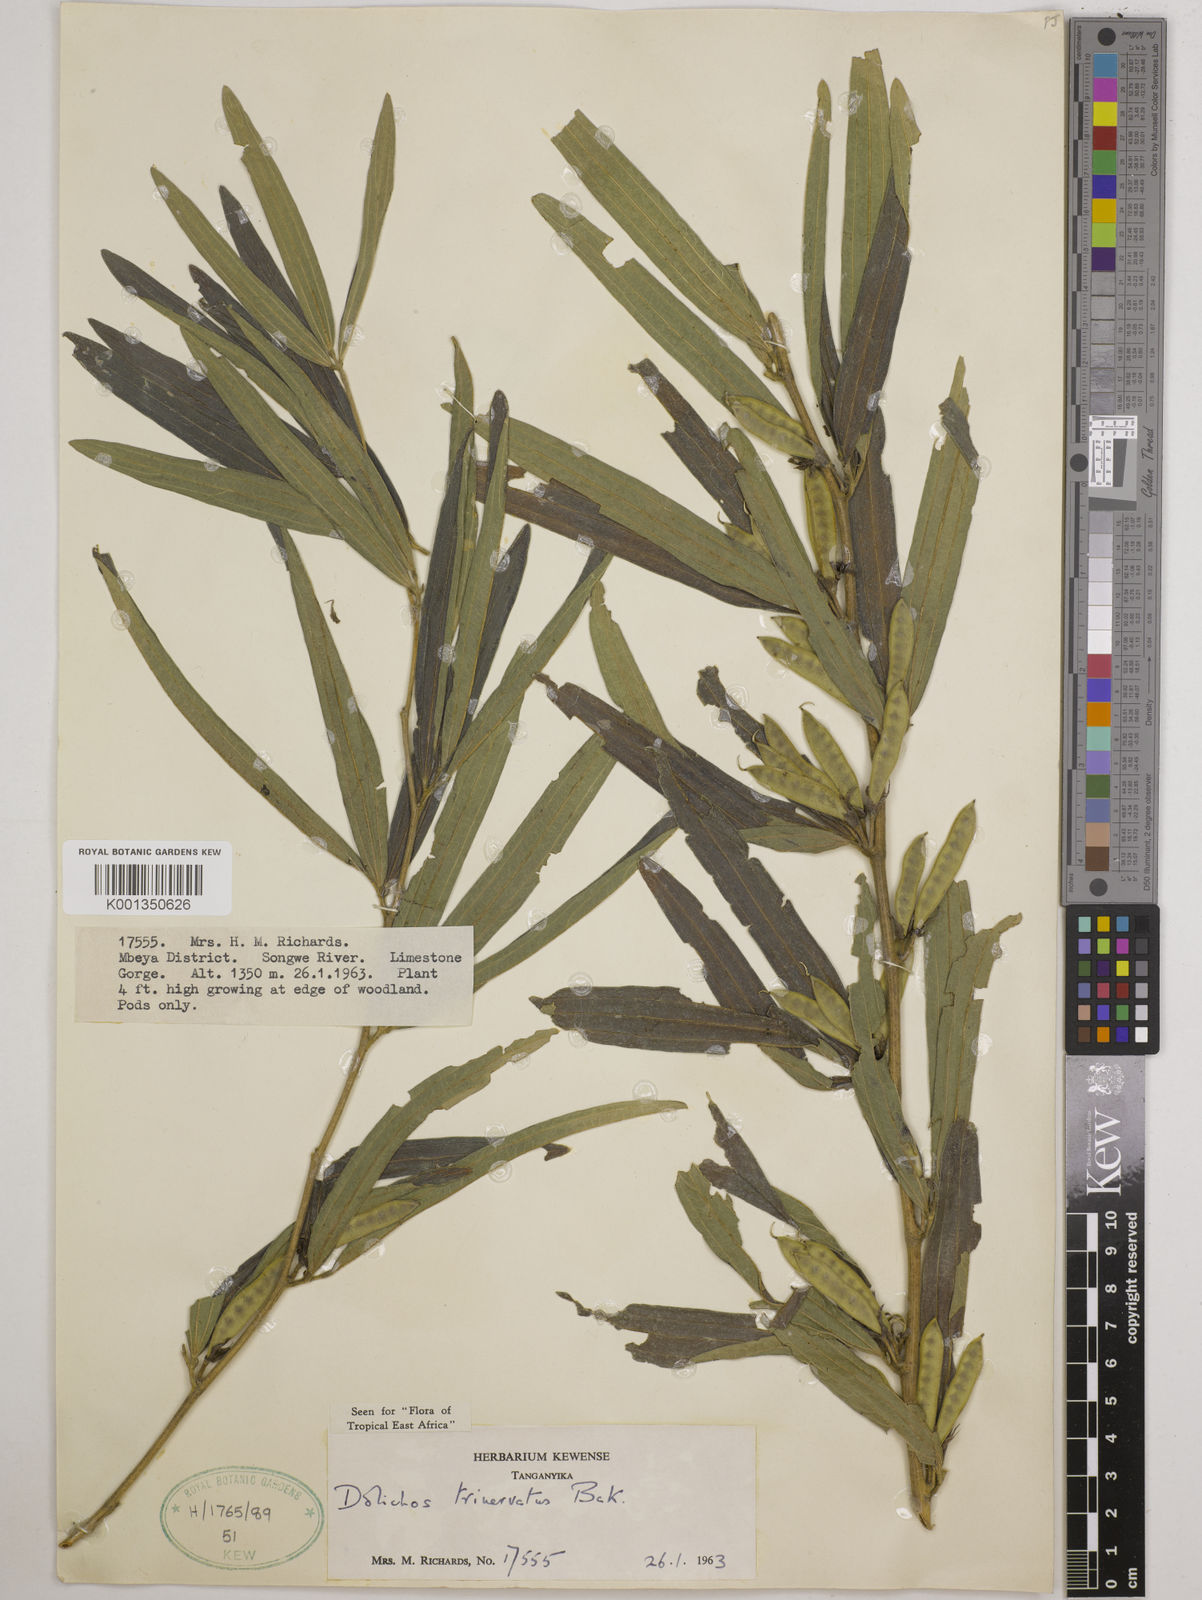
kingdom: Plantae
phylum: Tracheophyta
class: Magnoliopsida
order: Fabales
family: Fabaceae
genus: Dolichos
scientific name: Dolichos trinervatus
